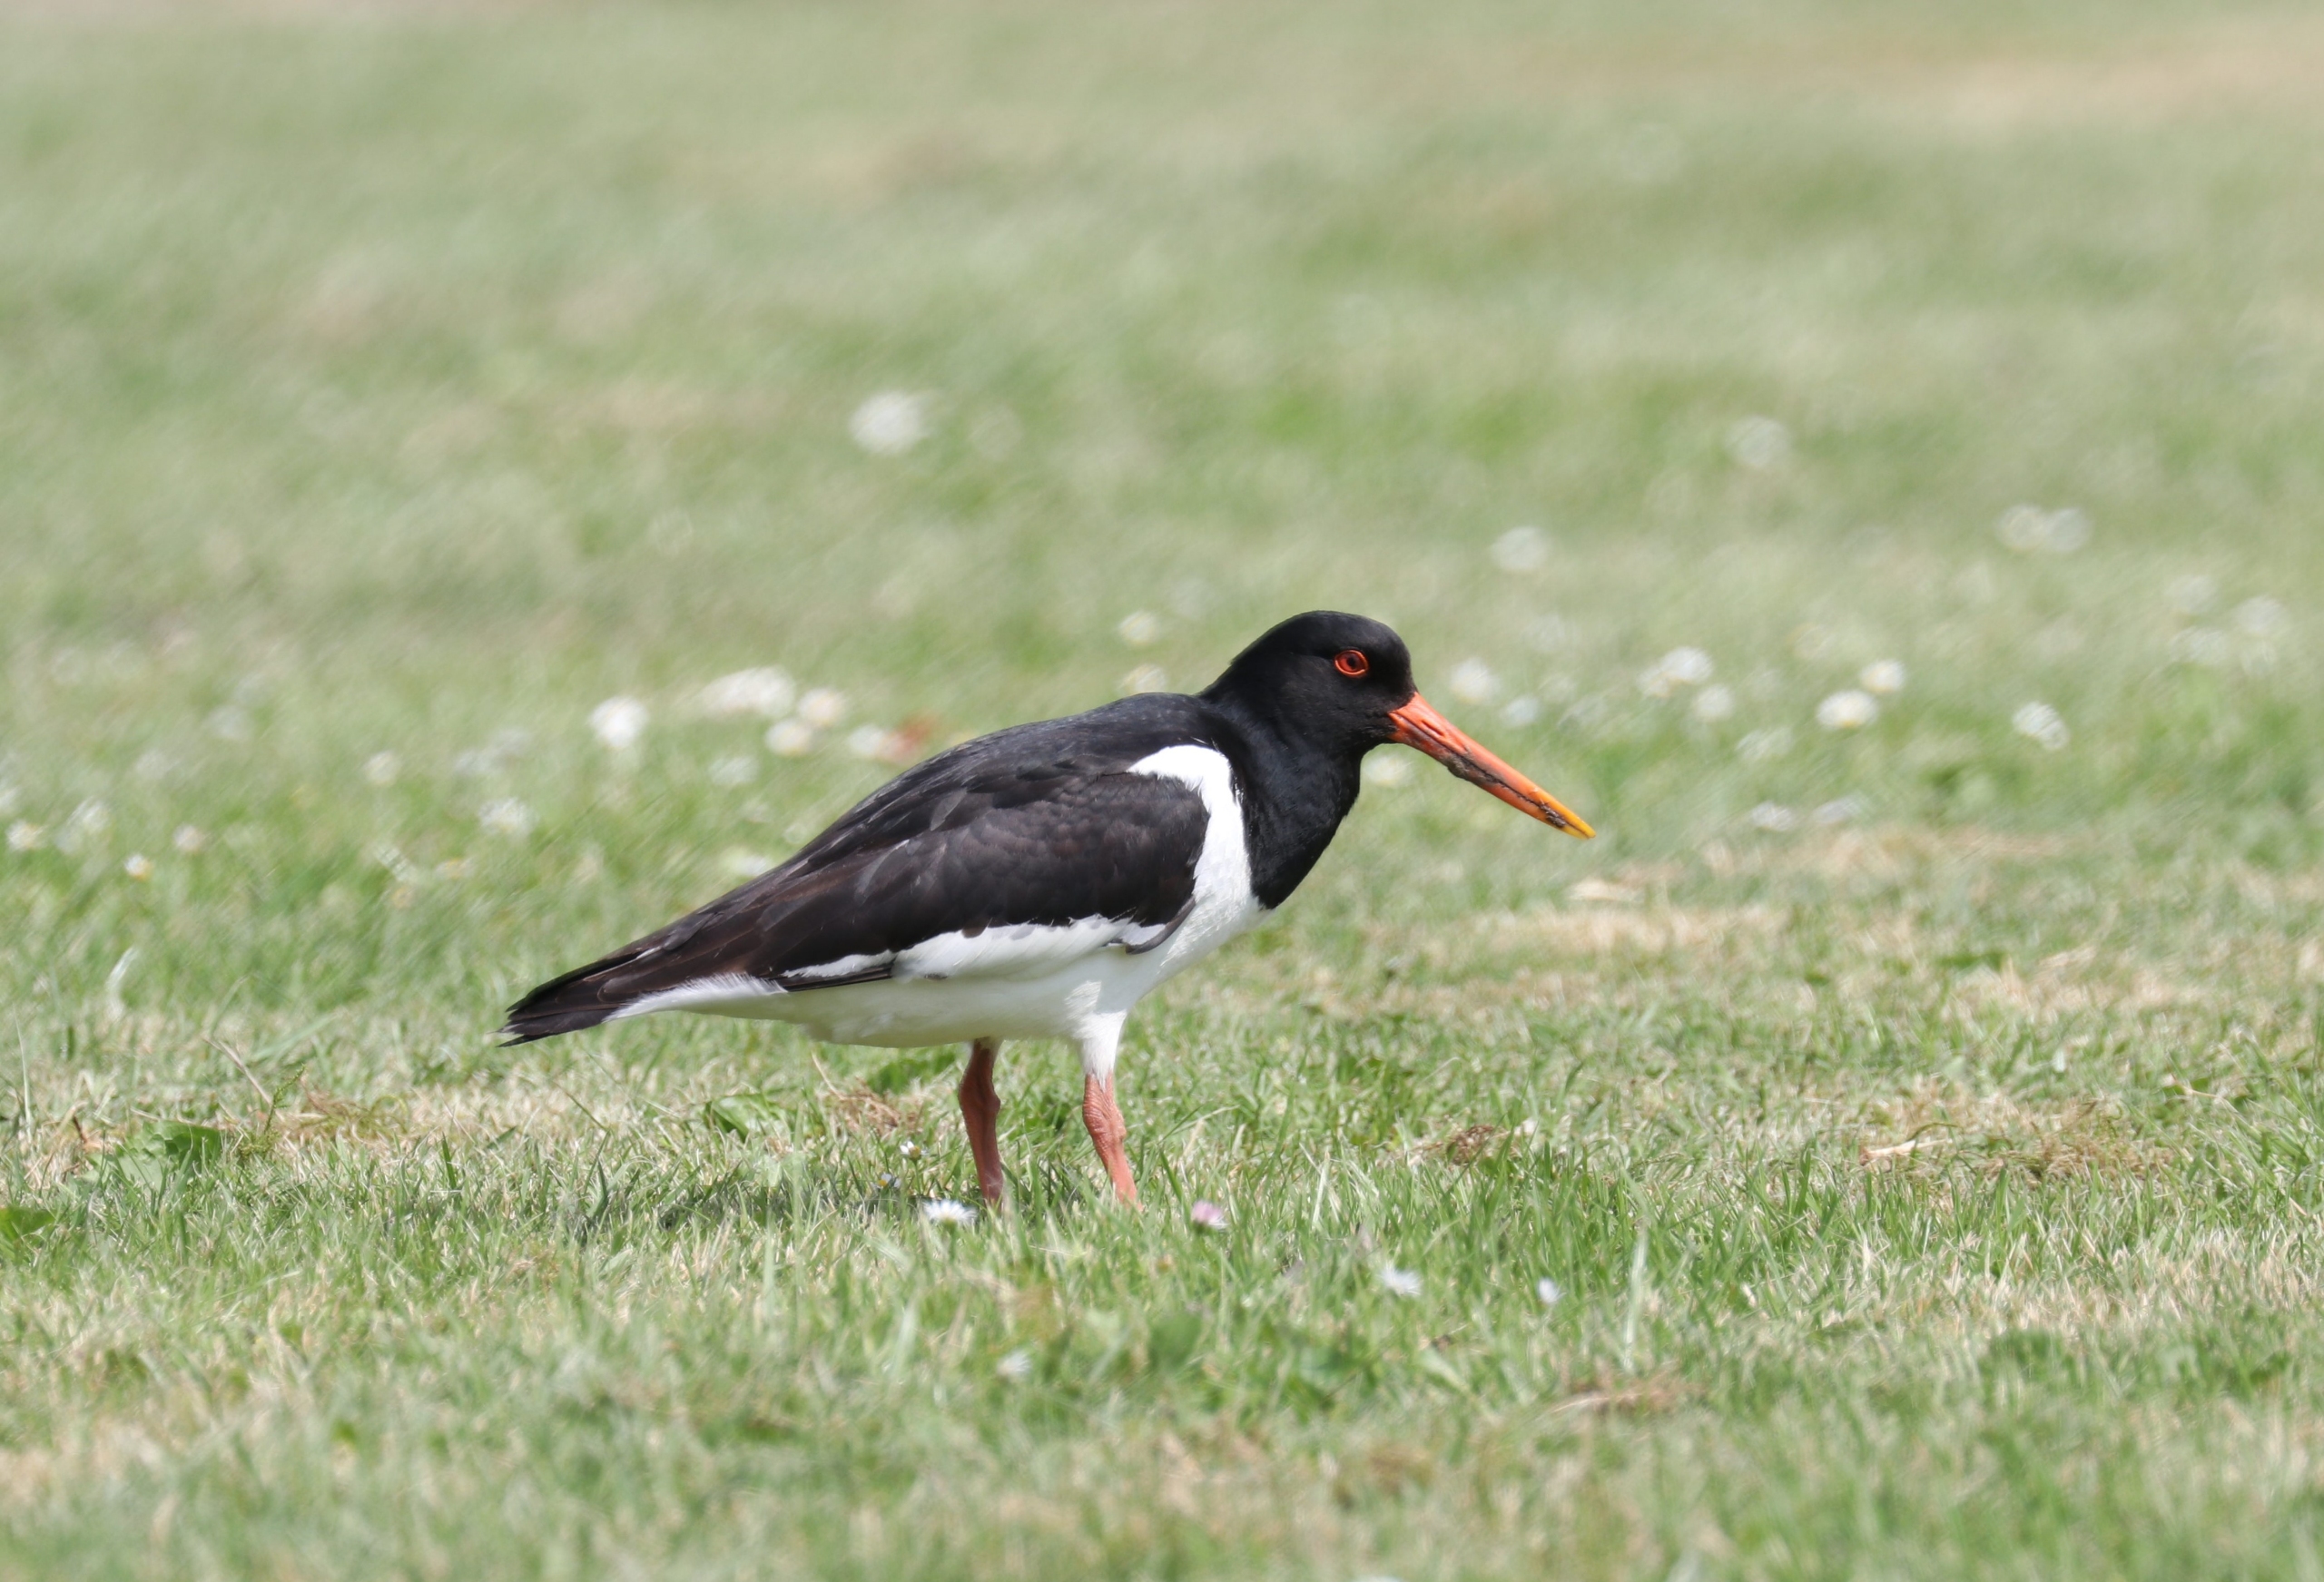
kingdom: Animalia
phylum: Chordata
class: Aves
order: Charadriiformes
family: Haematopodidae
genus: Haematopus
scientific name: Haematopus ostralegus
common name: Strandskade
